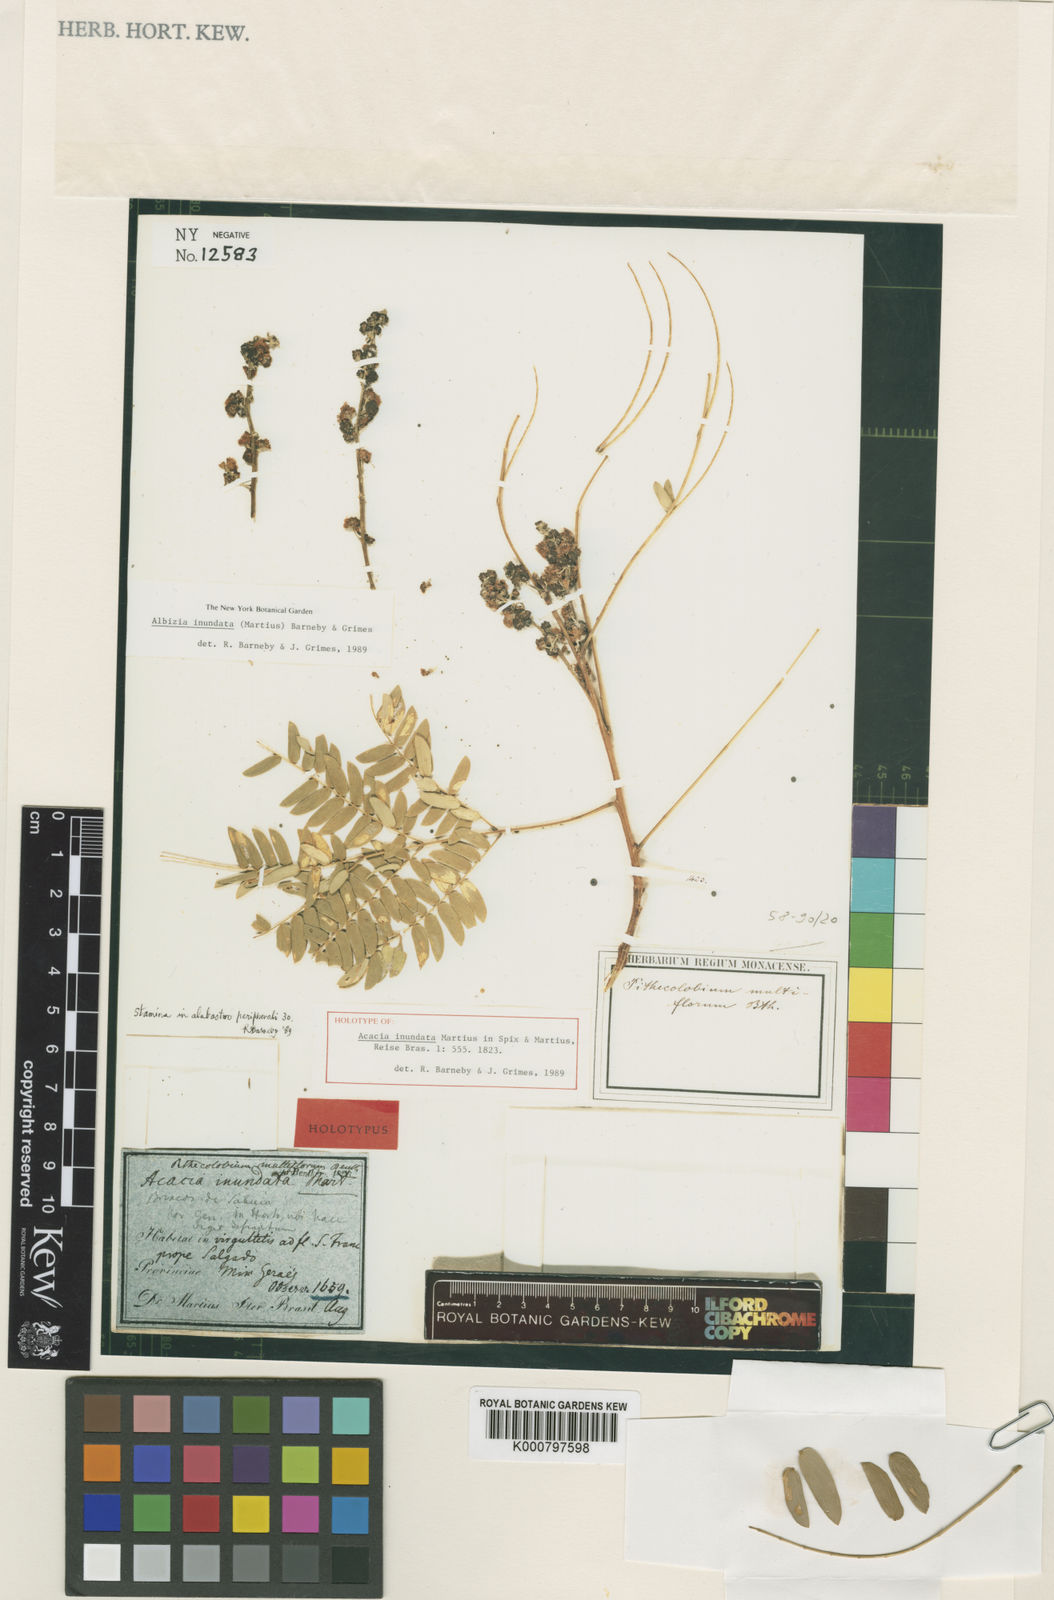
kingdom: Plantae
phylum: Tracheophyta
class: Magnoliopsida
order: Fabales
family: Fabaceae
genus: Albizia
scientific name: Albizia inundata
